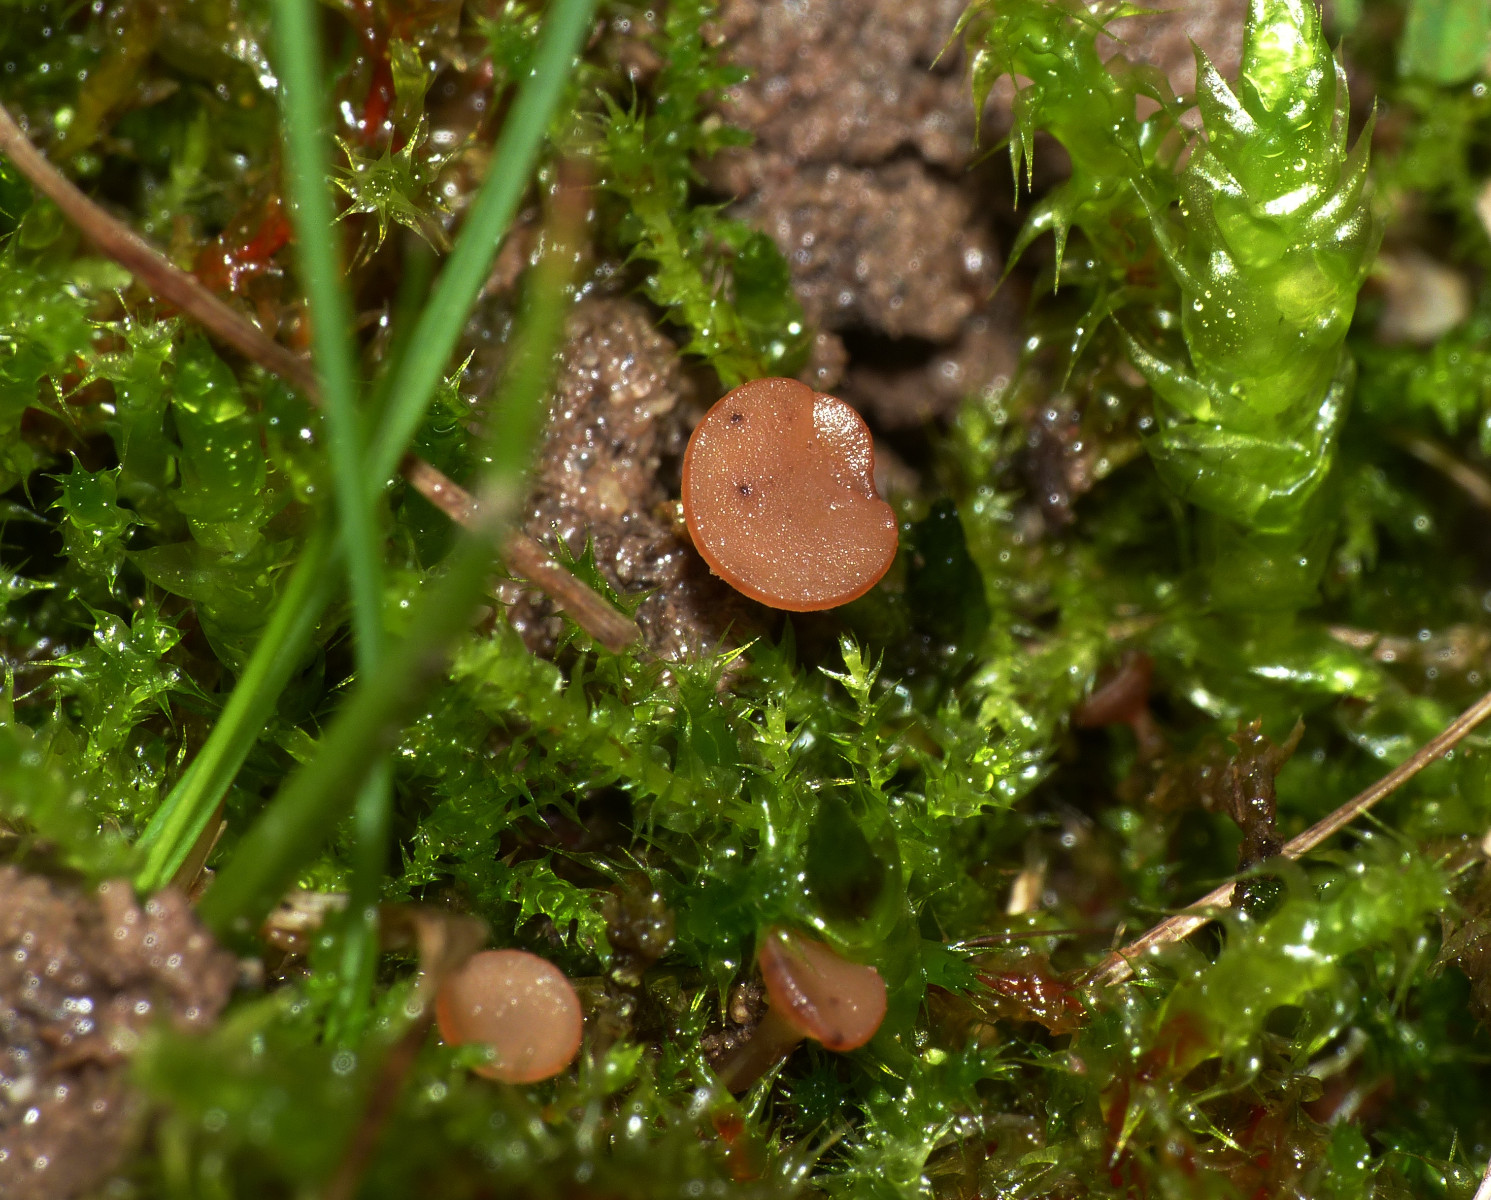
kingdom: Fungi
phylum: Ascomycota
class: Leotiomycetes
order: Helotiales
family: Sclerotiniaceae
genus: Sclerotinia
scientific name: Sclerotinia trifoliorum
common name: ærte-knoldskive
